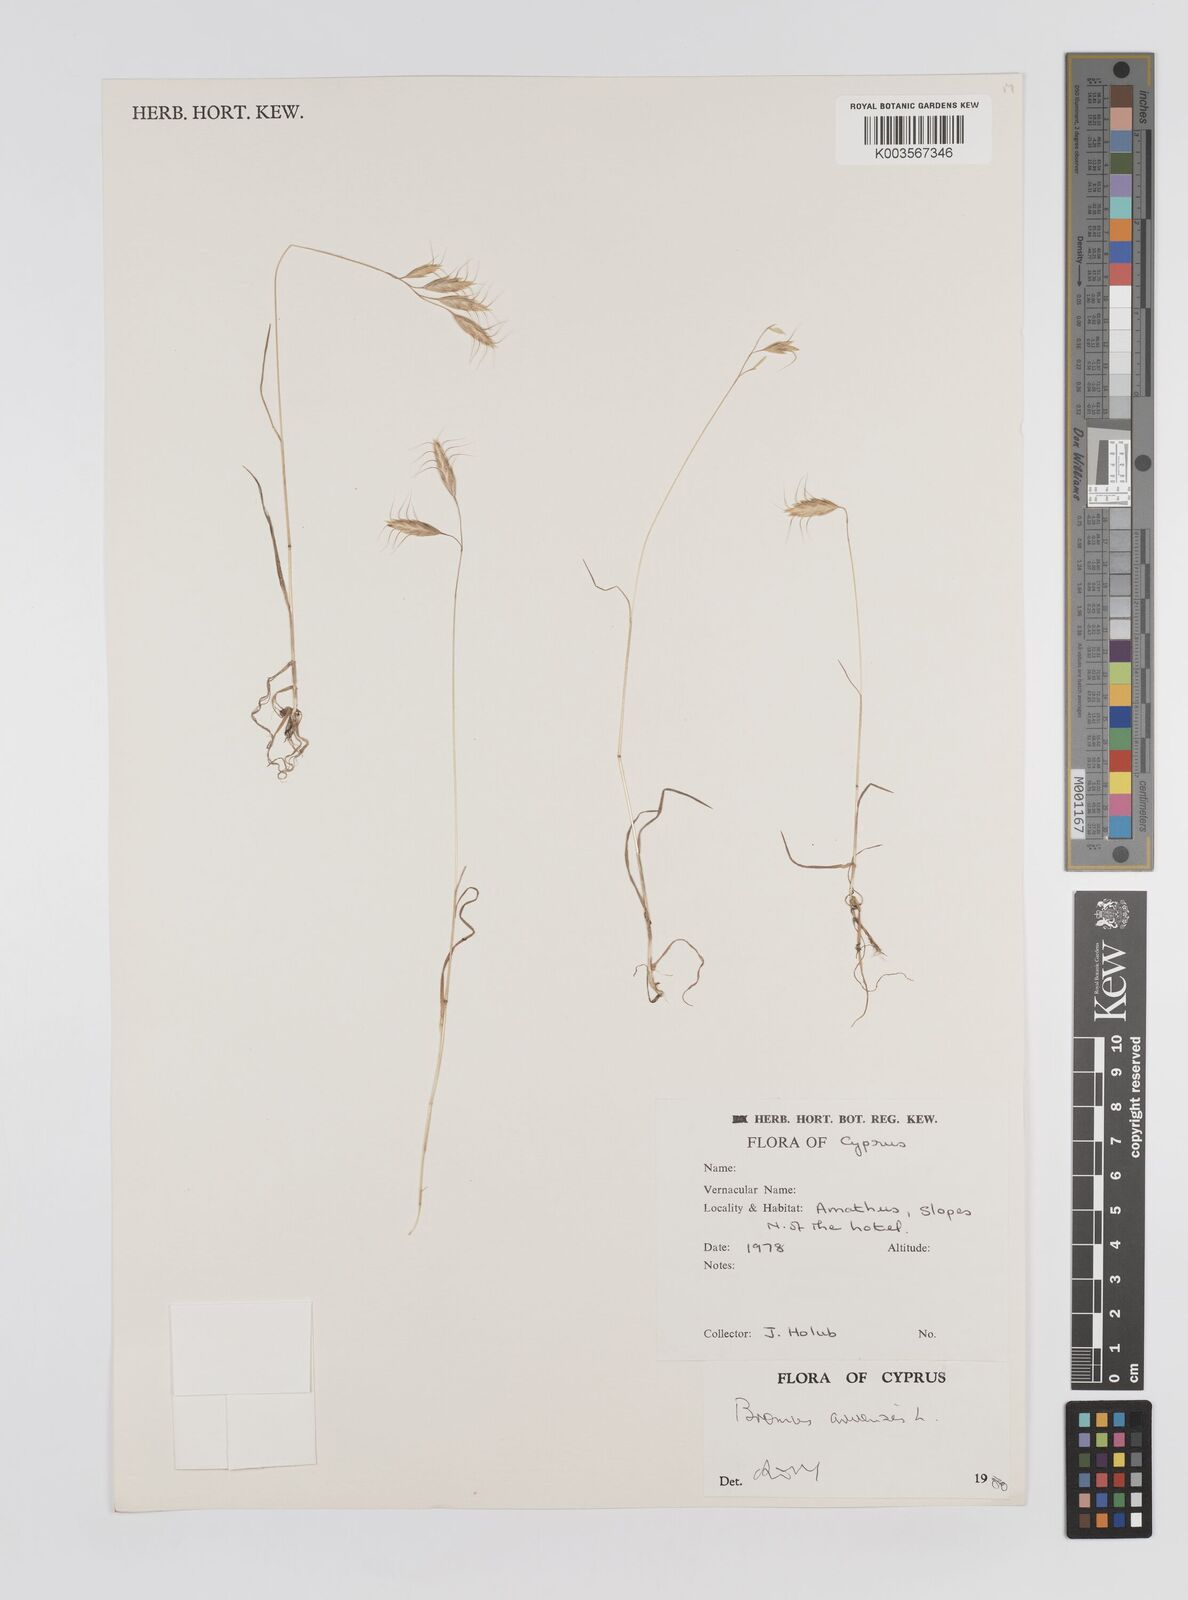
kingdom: Plantae
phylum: Tracheophyta
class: Liliopsida
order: Poales
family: Poaceae
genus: Bromus
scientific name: Bromus arvensis
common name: Field brome
